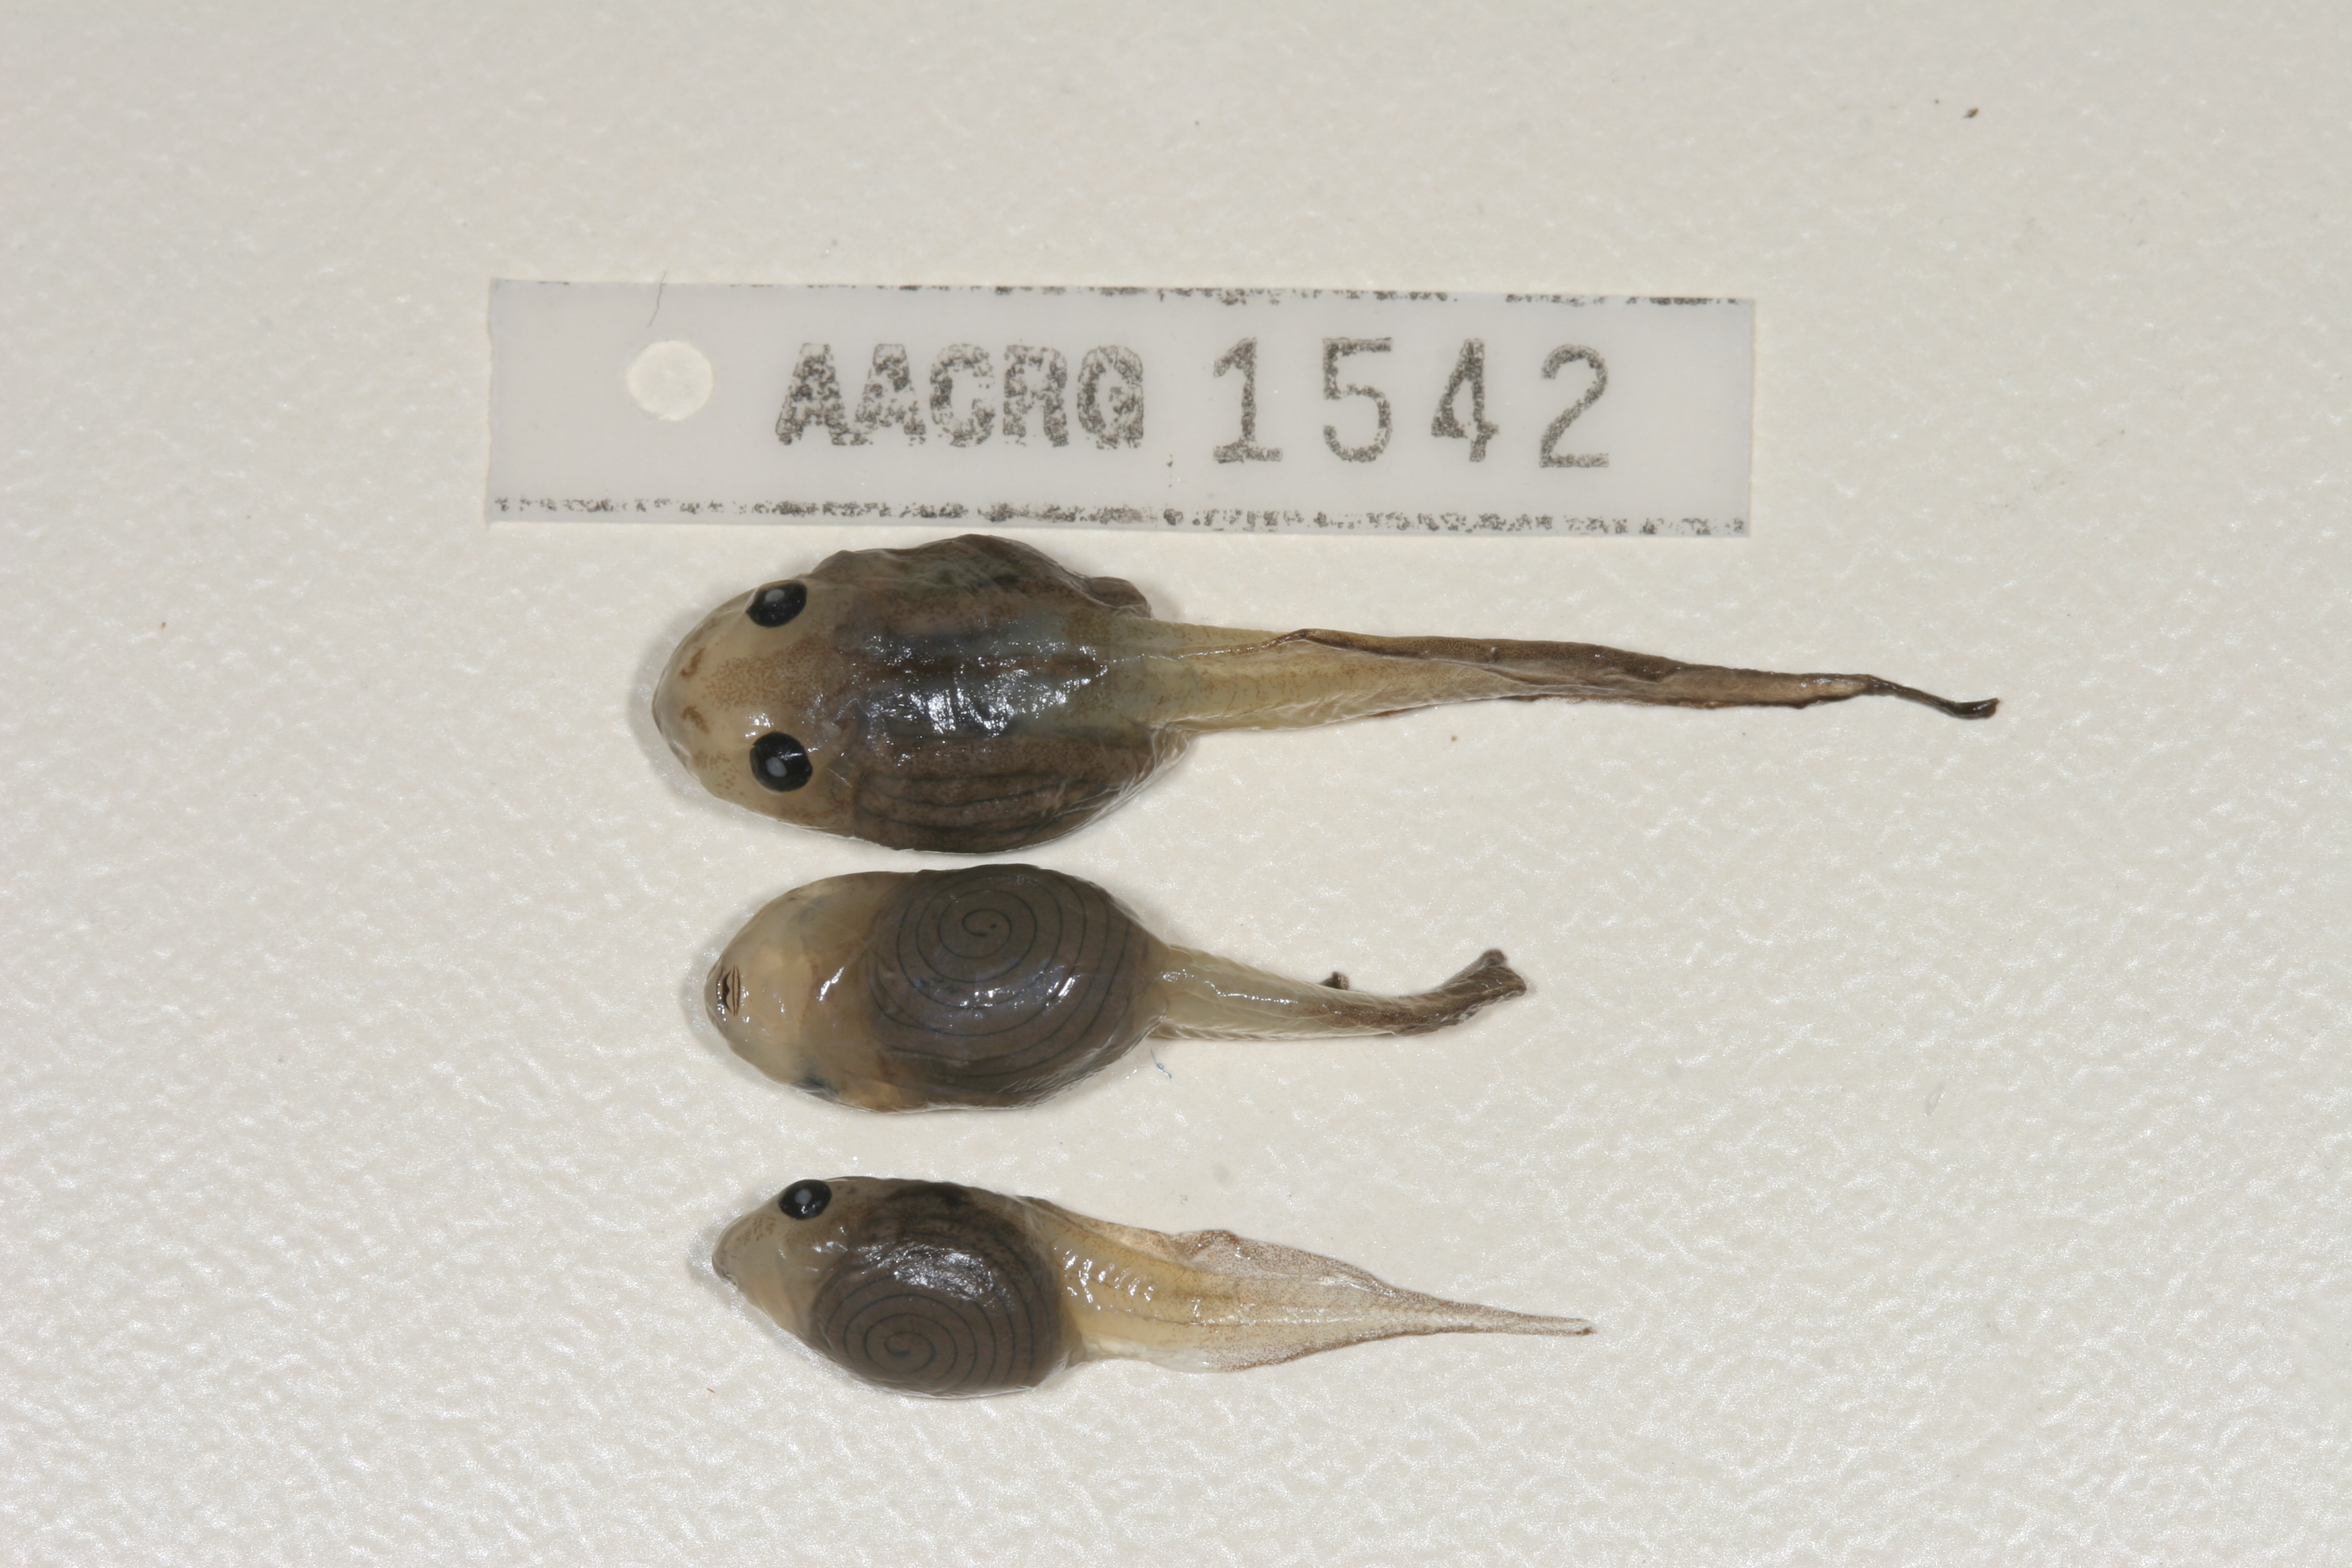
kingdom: Animalia
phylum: Chordata
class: Amphibia
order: Anura
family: Rhacophoridae
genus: Chiromantis
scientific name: Chiromantis xerampelina
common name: African gray treefrog
